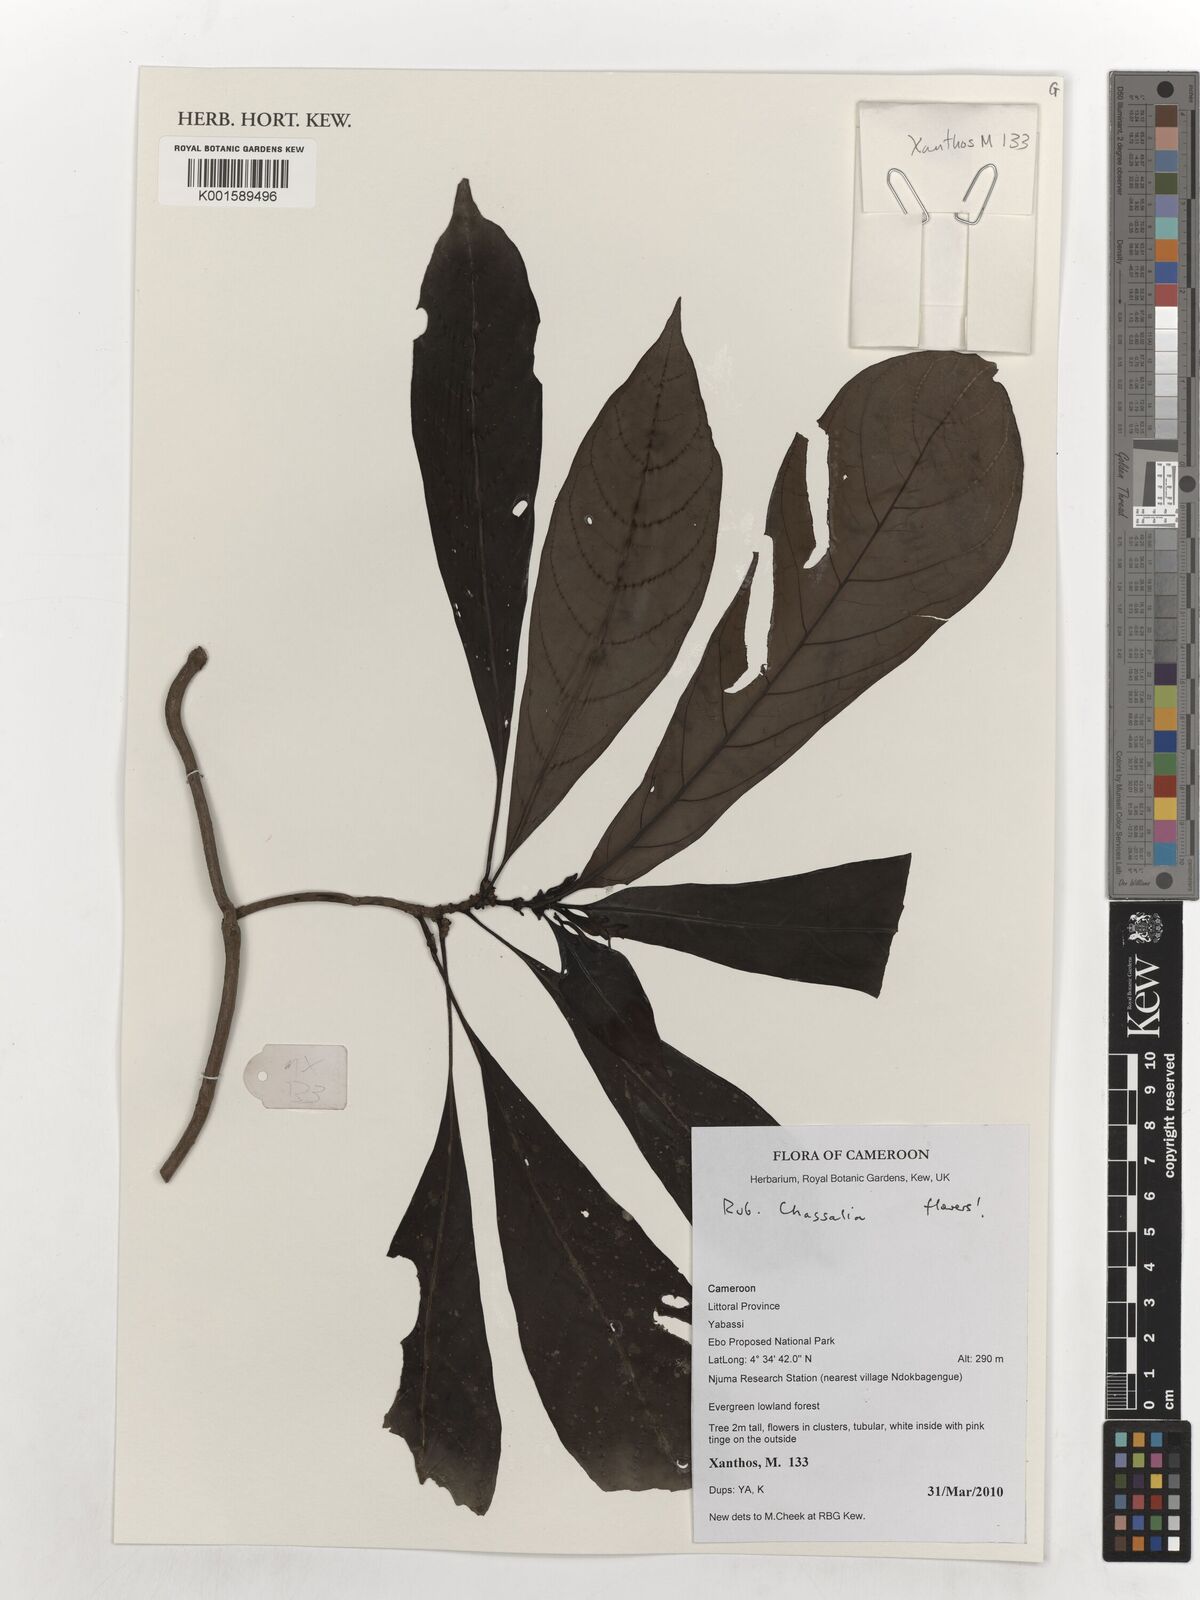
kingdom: Plantae
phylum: Tracheophyta
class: Magnoliopsida
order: Gentianales
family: Rubiaceae
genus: Chassalia
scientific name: Chassalia
